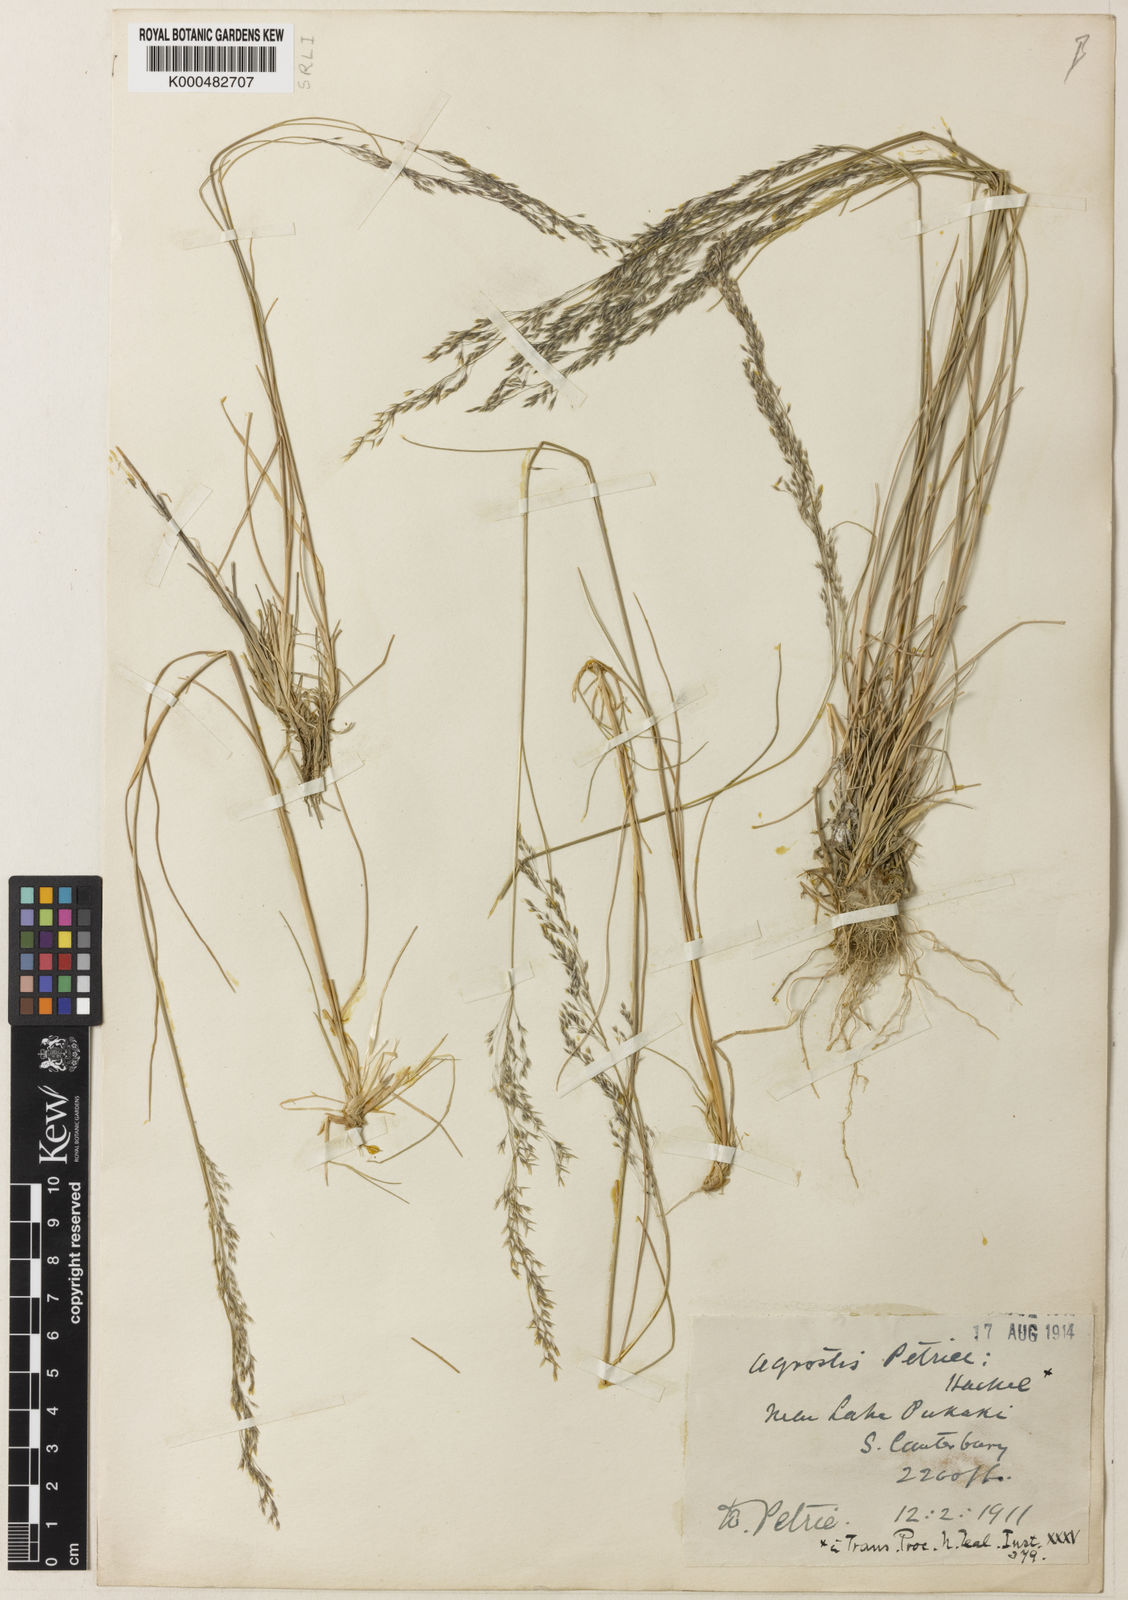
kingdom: Plantae
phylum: Tracheophyta
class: Liliopsida
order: Poales
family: Poaceae
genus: Agrostis
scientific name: Agrostis petriei
